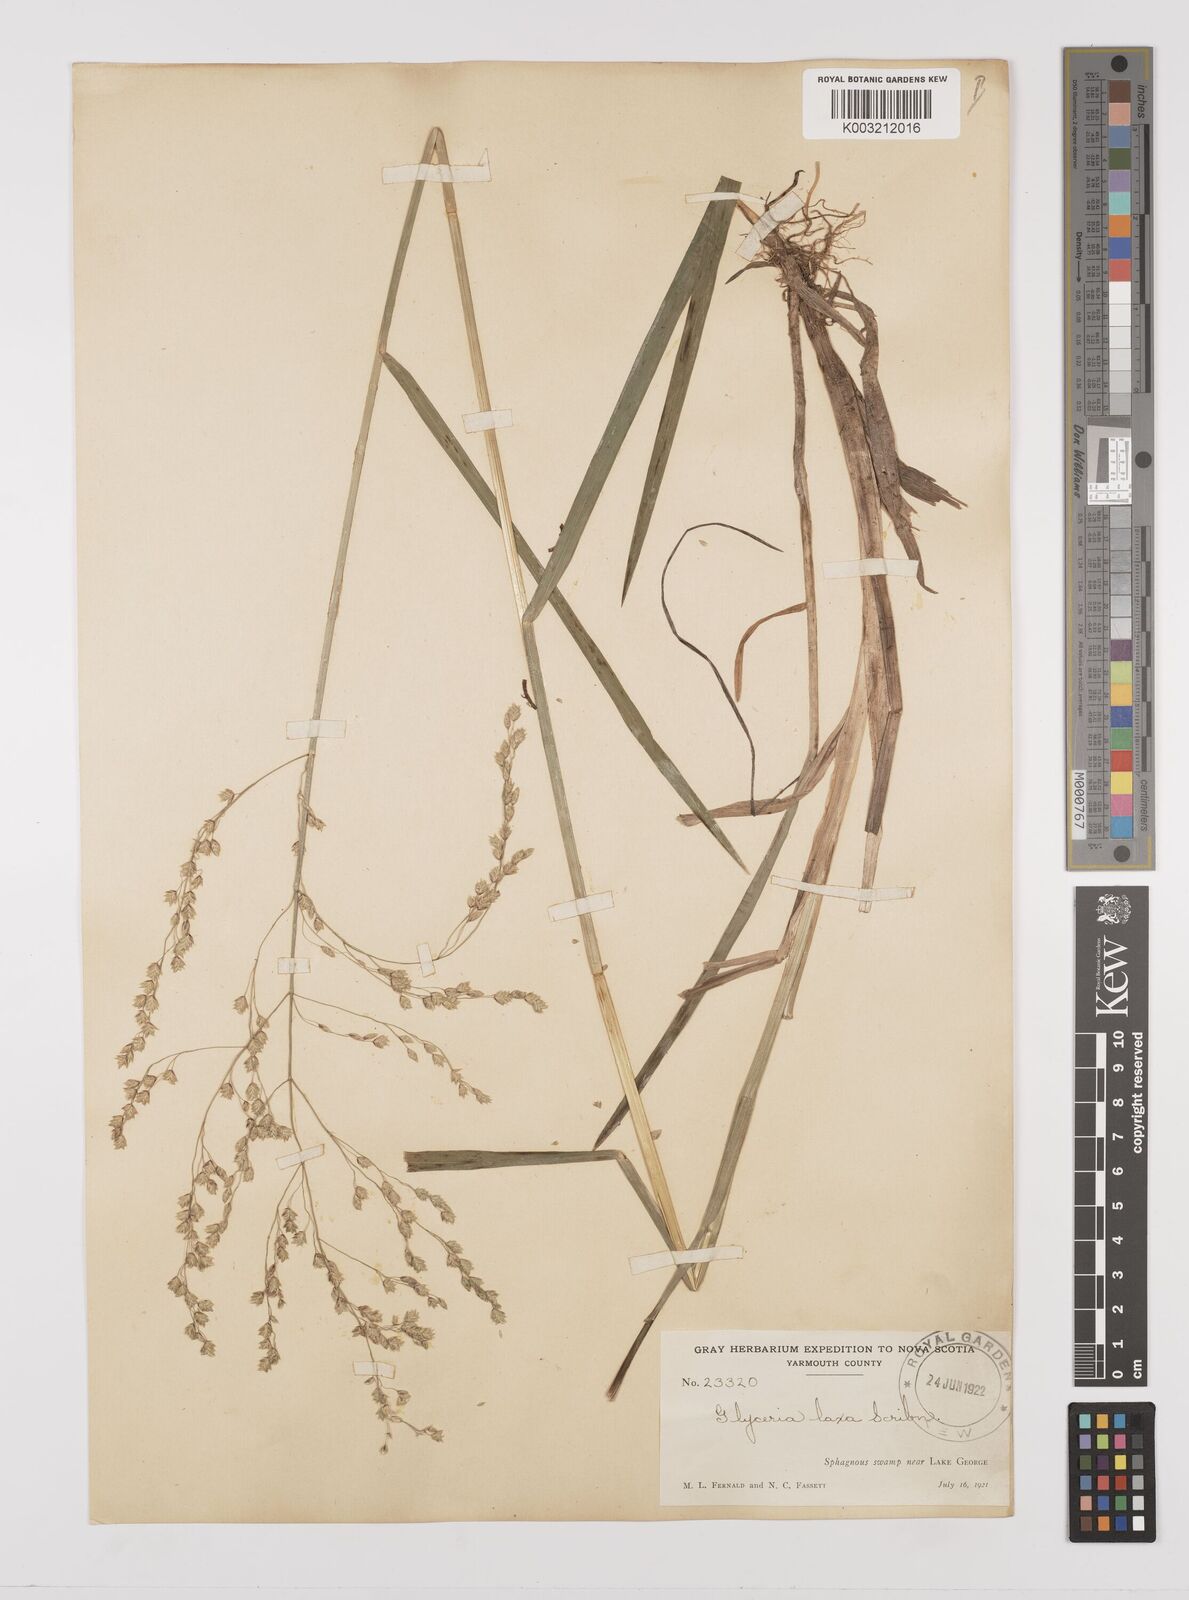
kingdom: Plantae
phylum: Tracheophyta
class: Liliopsida
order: Poales
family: Poaceae
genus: Glyceria
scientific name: Glyceria canadensis
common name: Canada mannagrass
